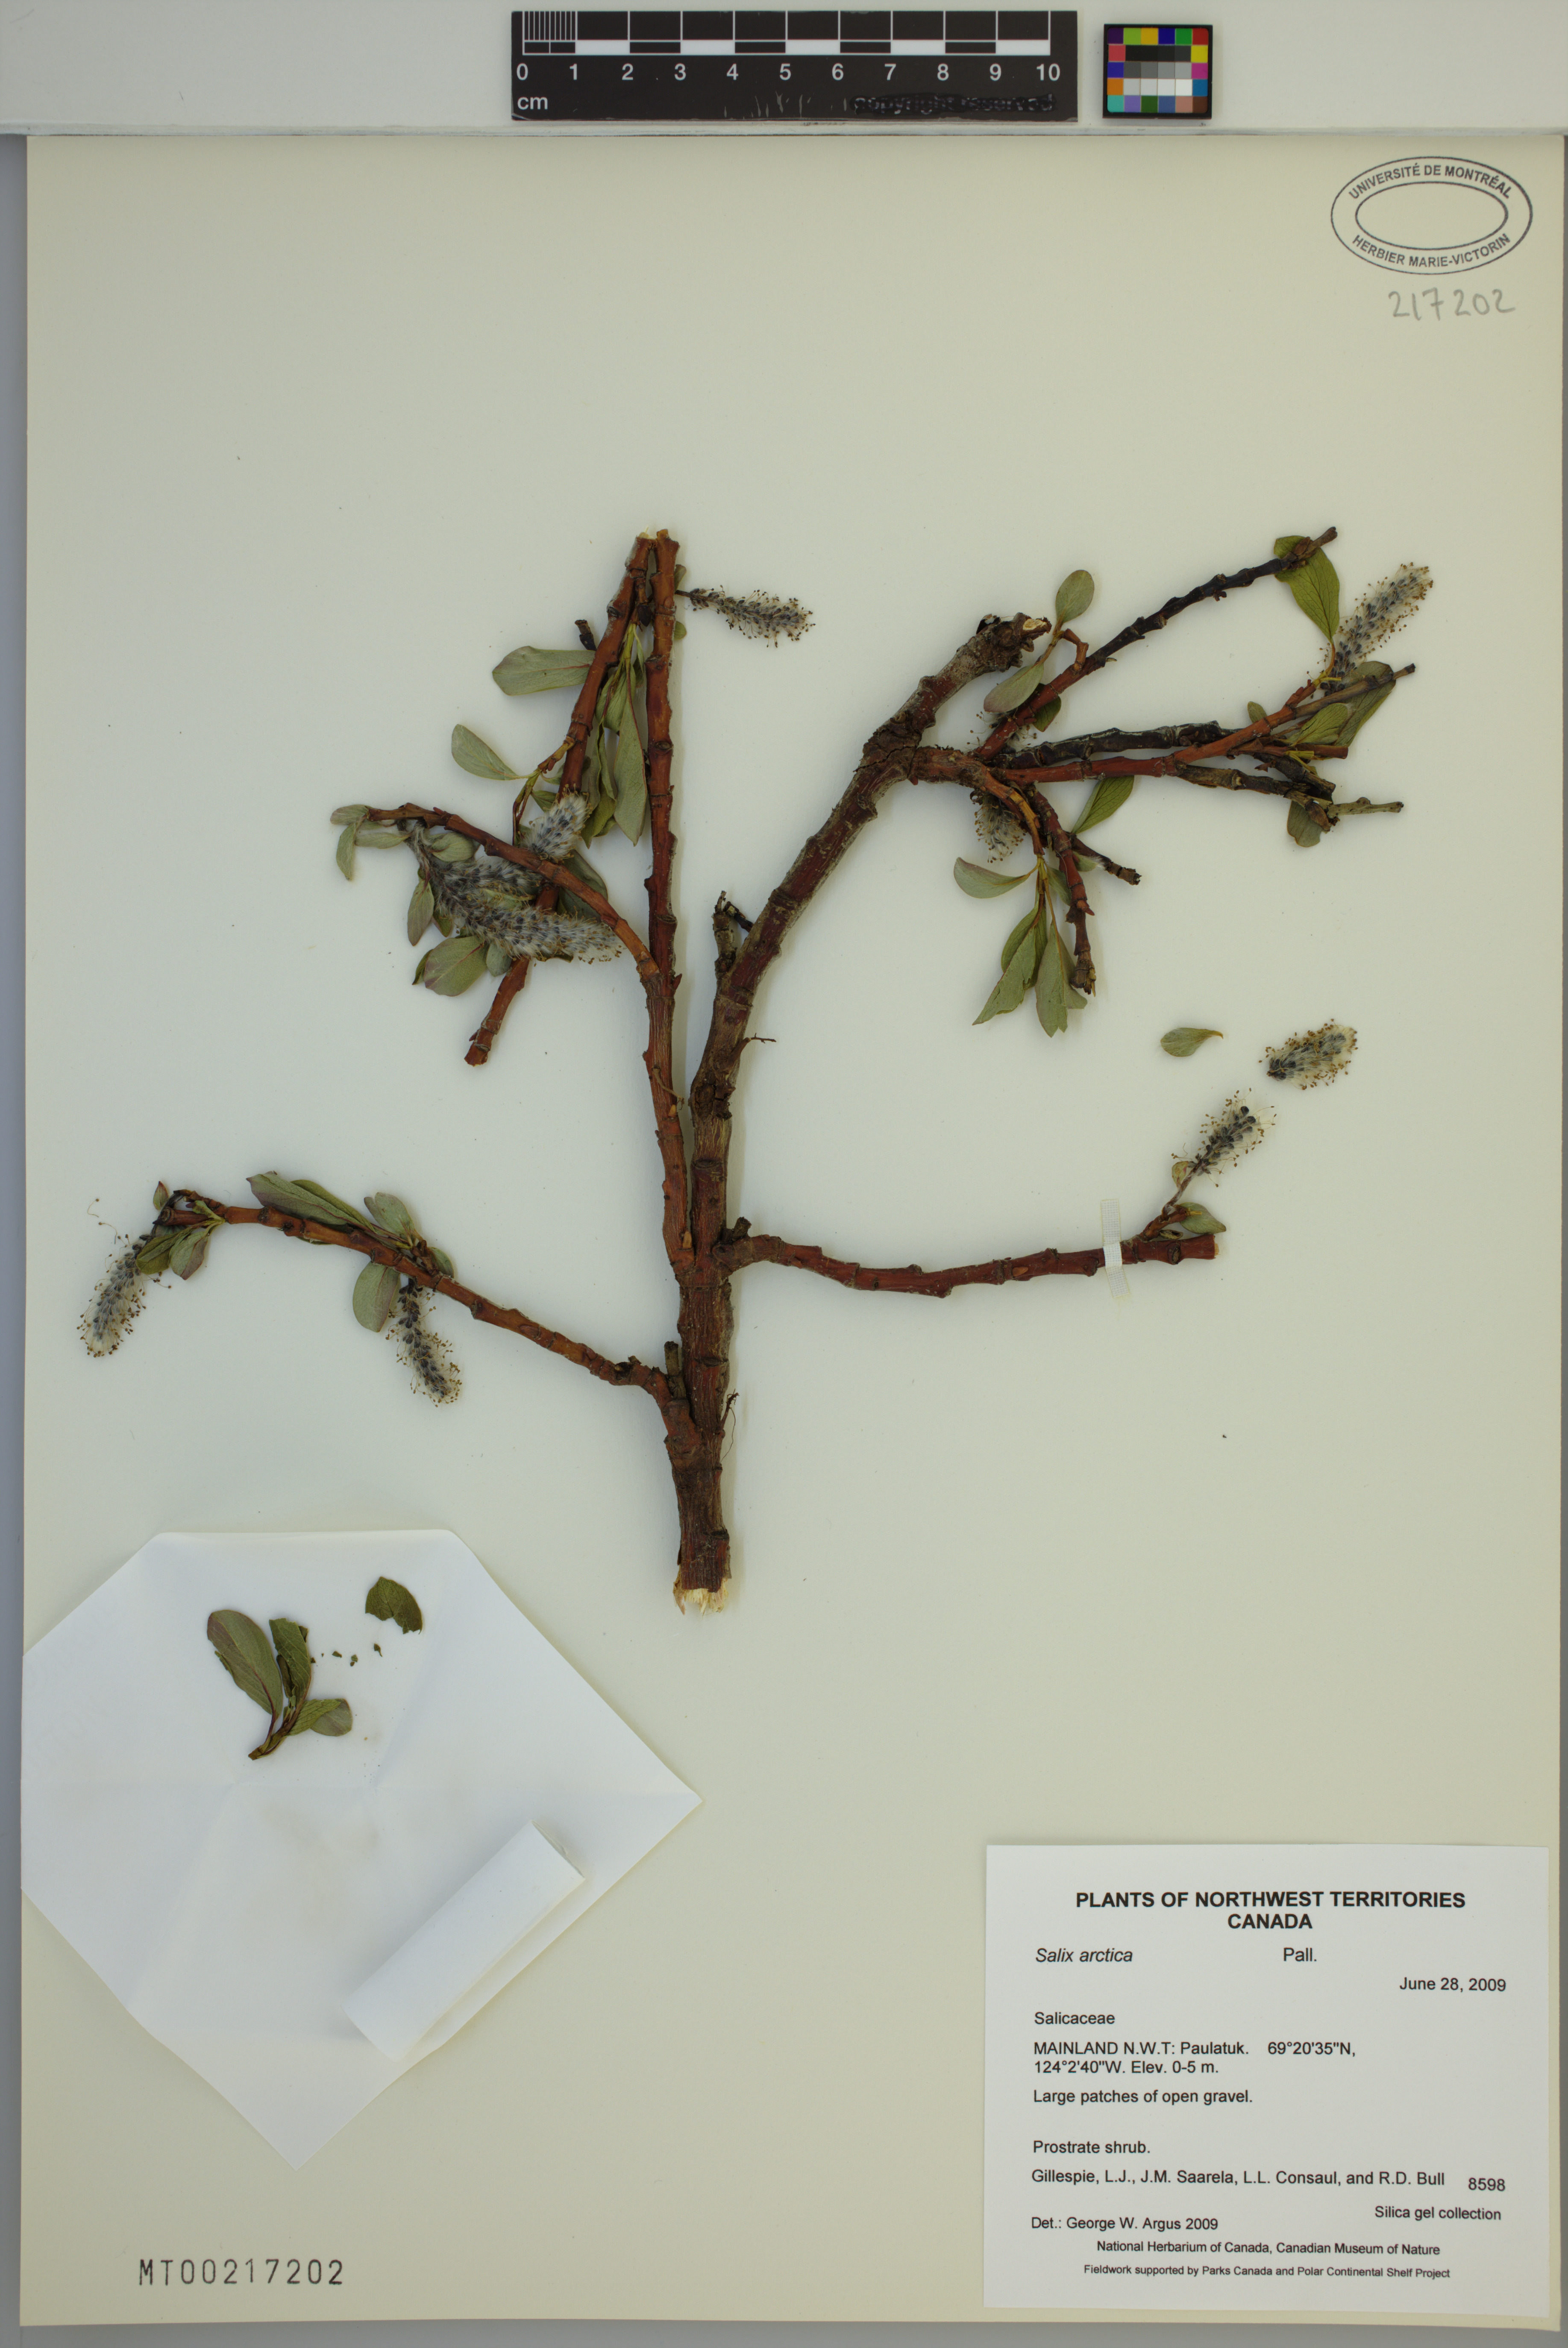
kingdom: Plantae
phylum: Tracheophyta
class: Magnoliopsida
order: Malpighiales
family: Salicaceae
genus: Salix
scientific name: Salix arctica
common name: Arctic willow
